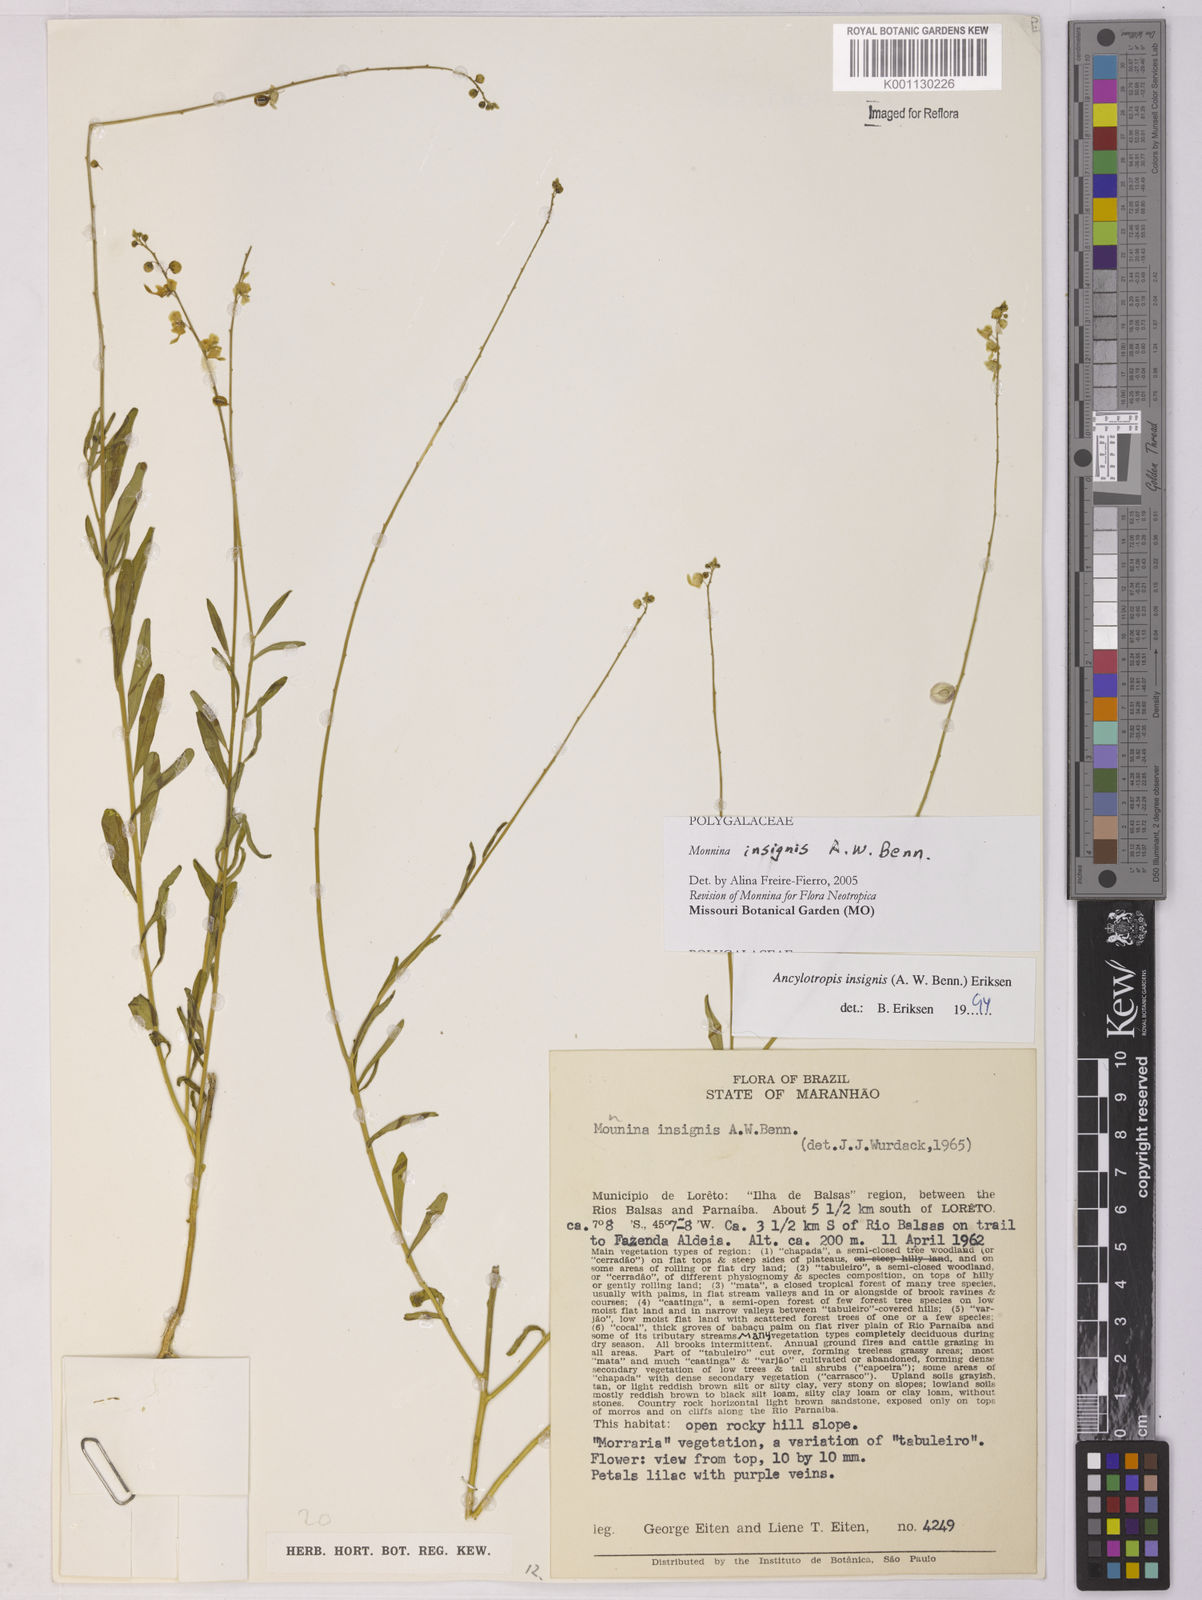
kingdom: Plantae
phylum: Tracheophyta
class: Magnoliopsida
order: Fabales
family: Polygalaceae
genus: Ancylotropis
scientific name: Ancylotropis insignis
